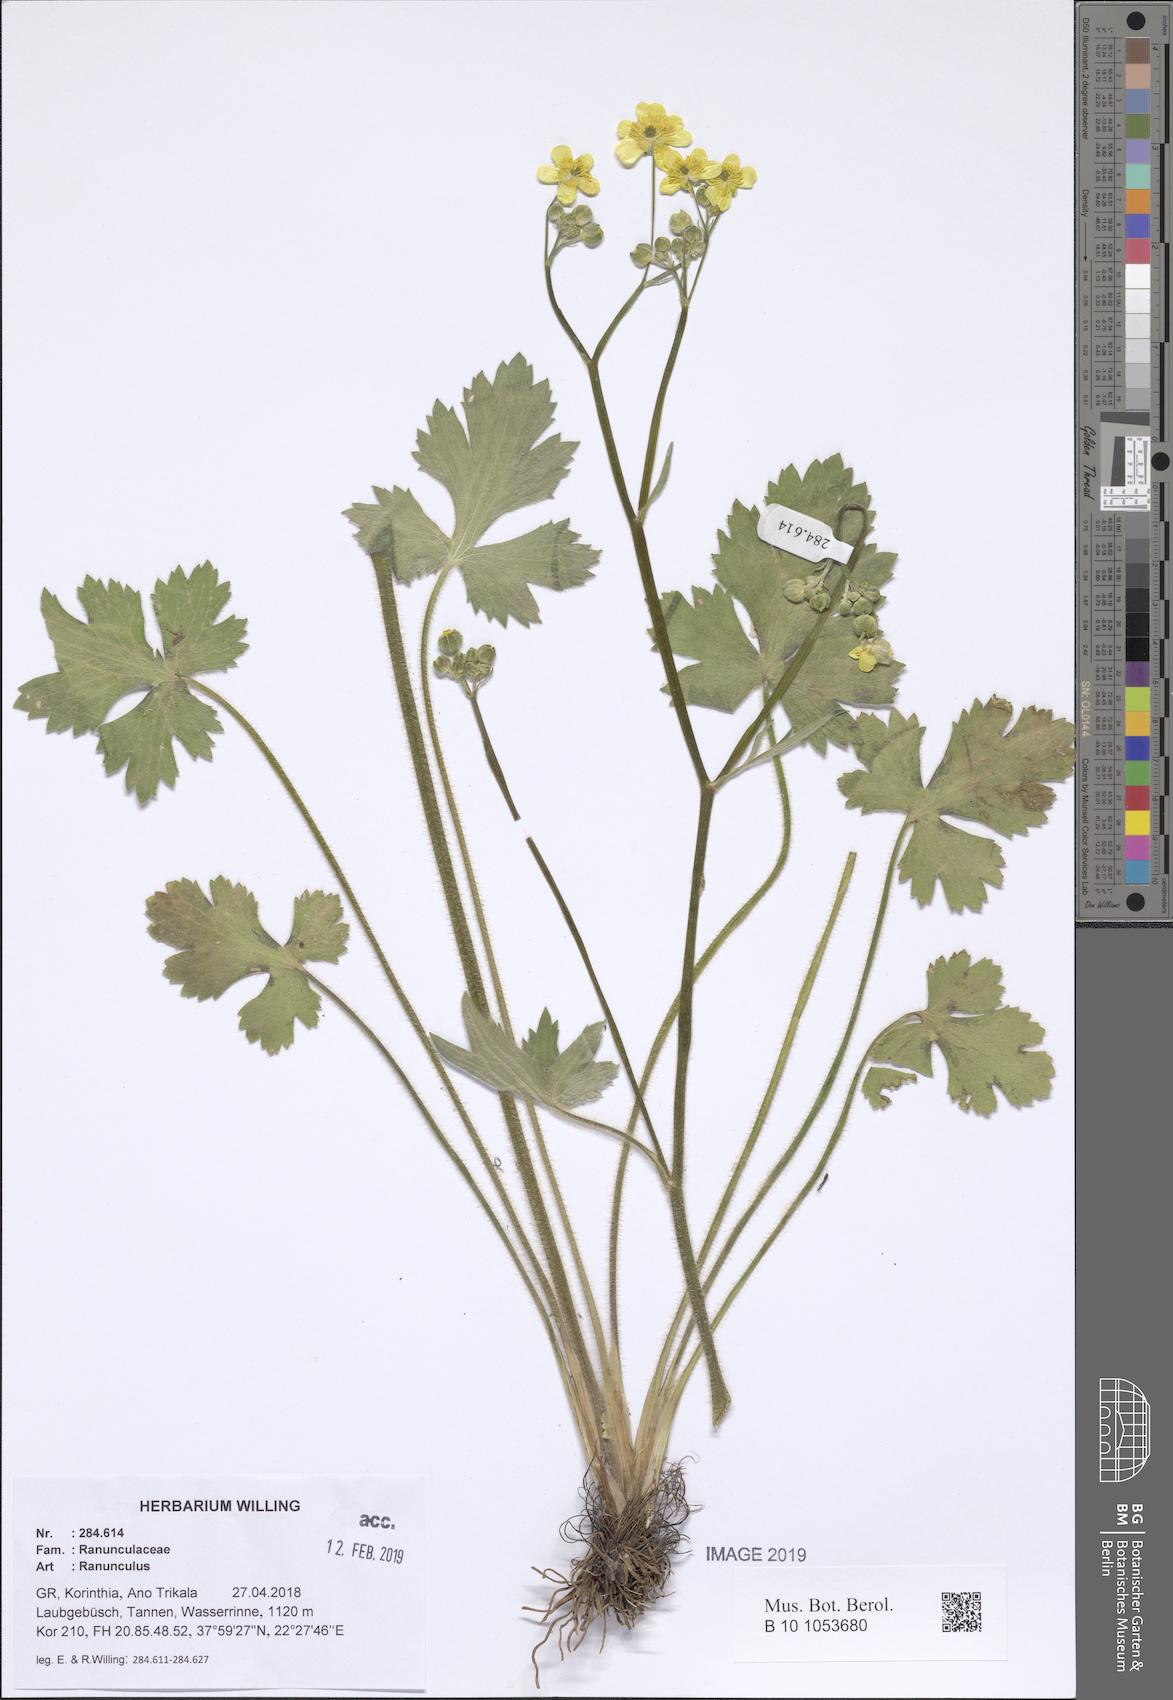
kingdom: Plantae
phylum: Tracheophyta
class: Magnoliopsida
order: Ranunculales
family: Ranunculaceae
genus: Ranunculus
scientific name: Ranunculus
